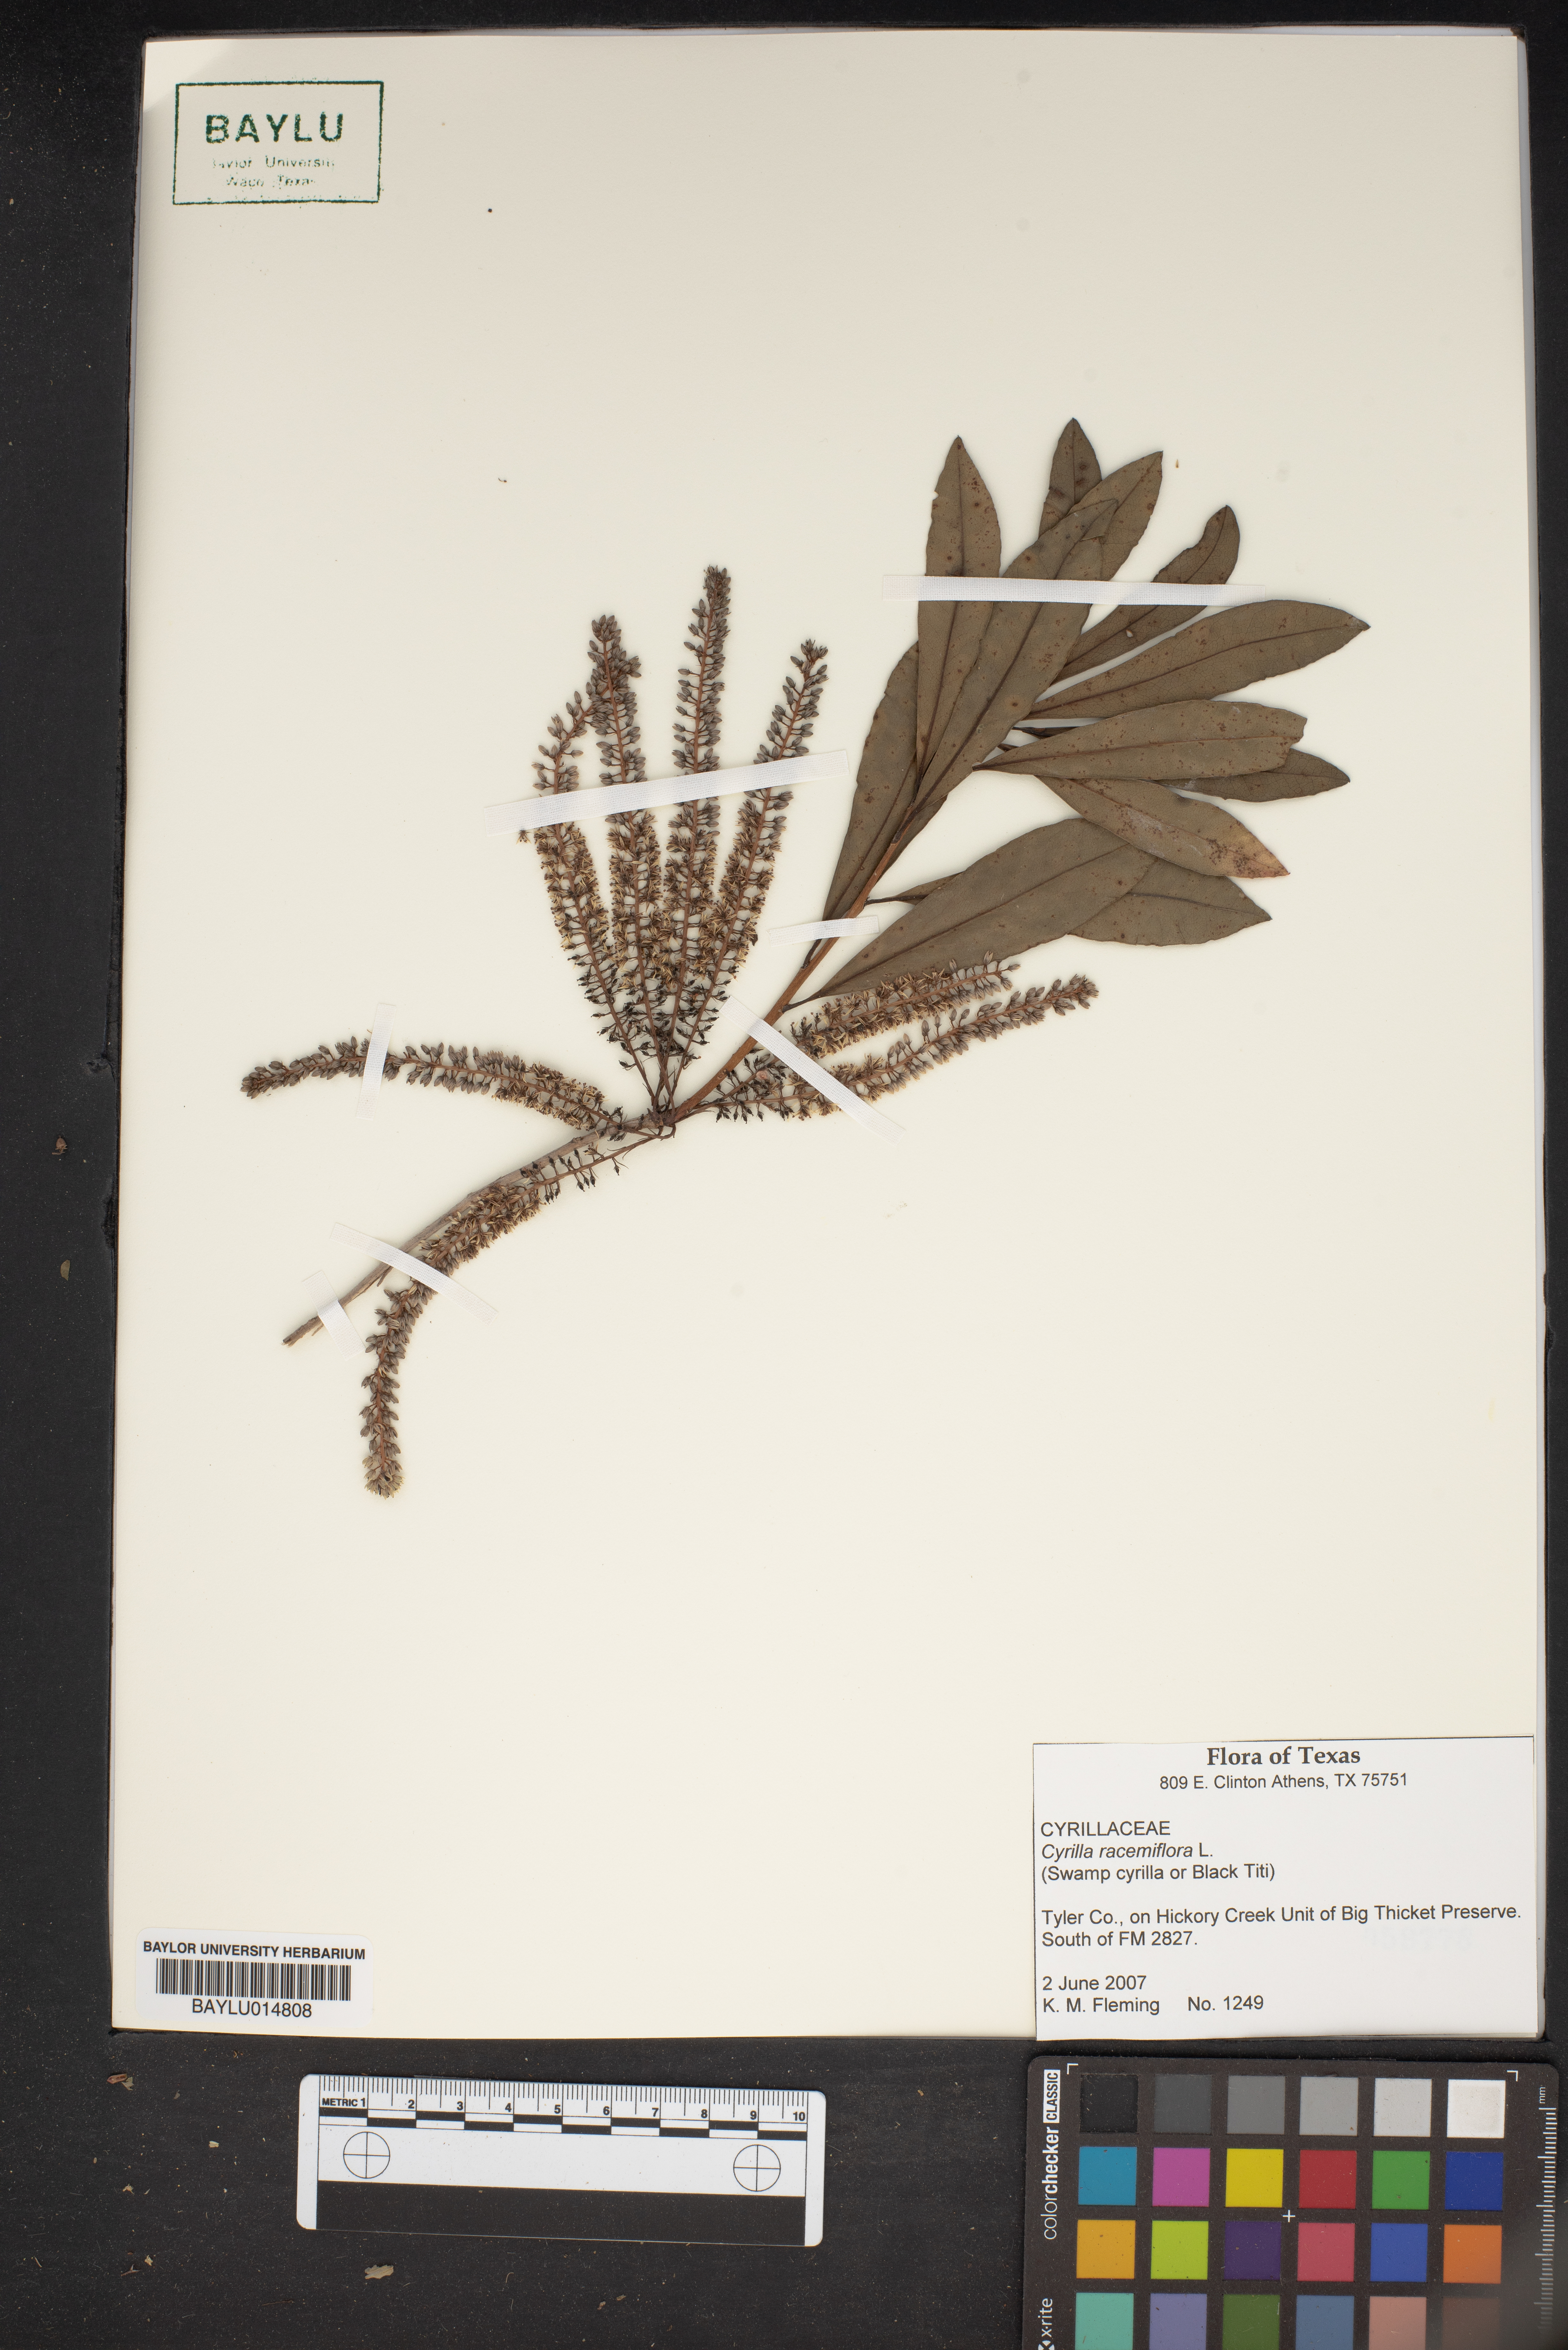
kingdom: Plantae
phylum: Tracheophyta
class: Magnoliopsida
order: Ericales
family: Cyrillaceae
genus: Cyrilla
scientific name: Cyrilla racemiflora
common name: Black titi
